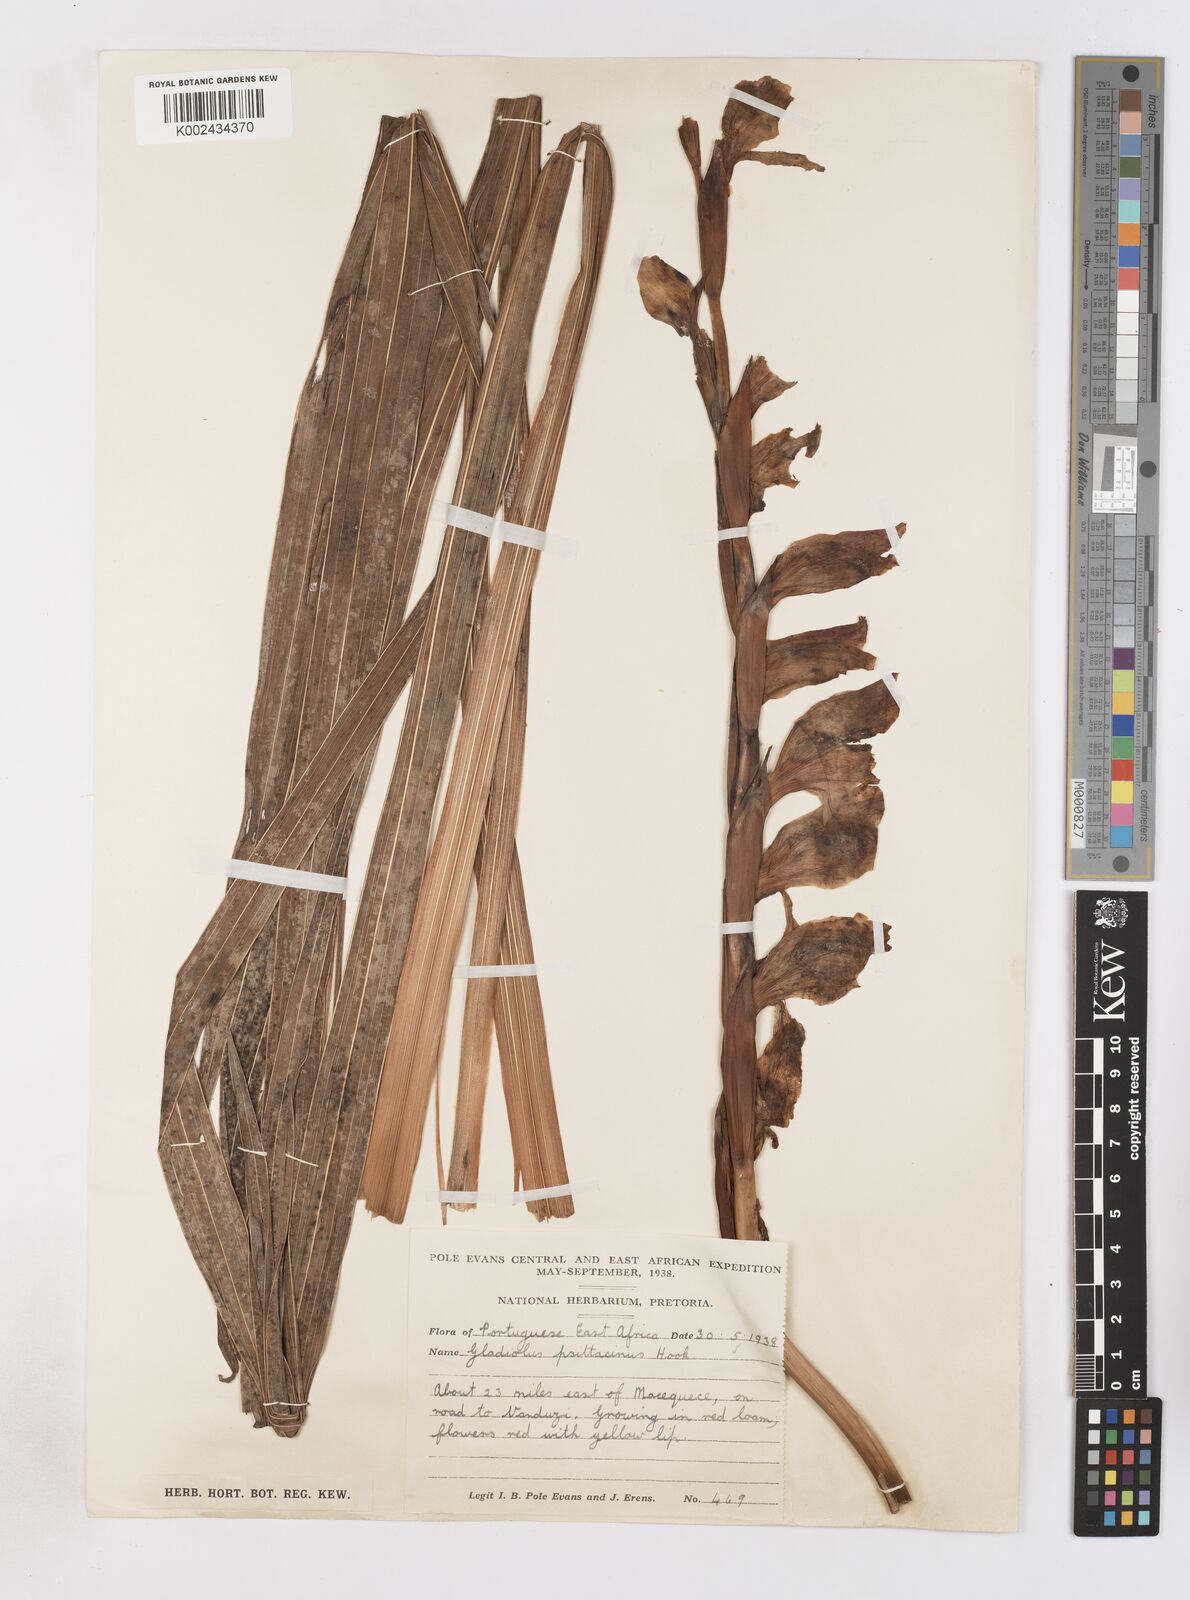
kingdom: Plantae
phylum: Tracheophyta
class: Liliopsida
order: Asparagales
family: Iridaceae
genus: Gladiolus
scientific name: Gladiolus dalenii
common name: Cornflag
